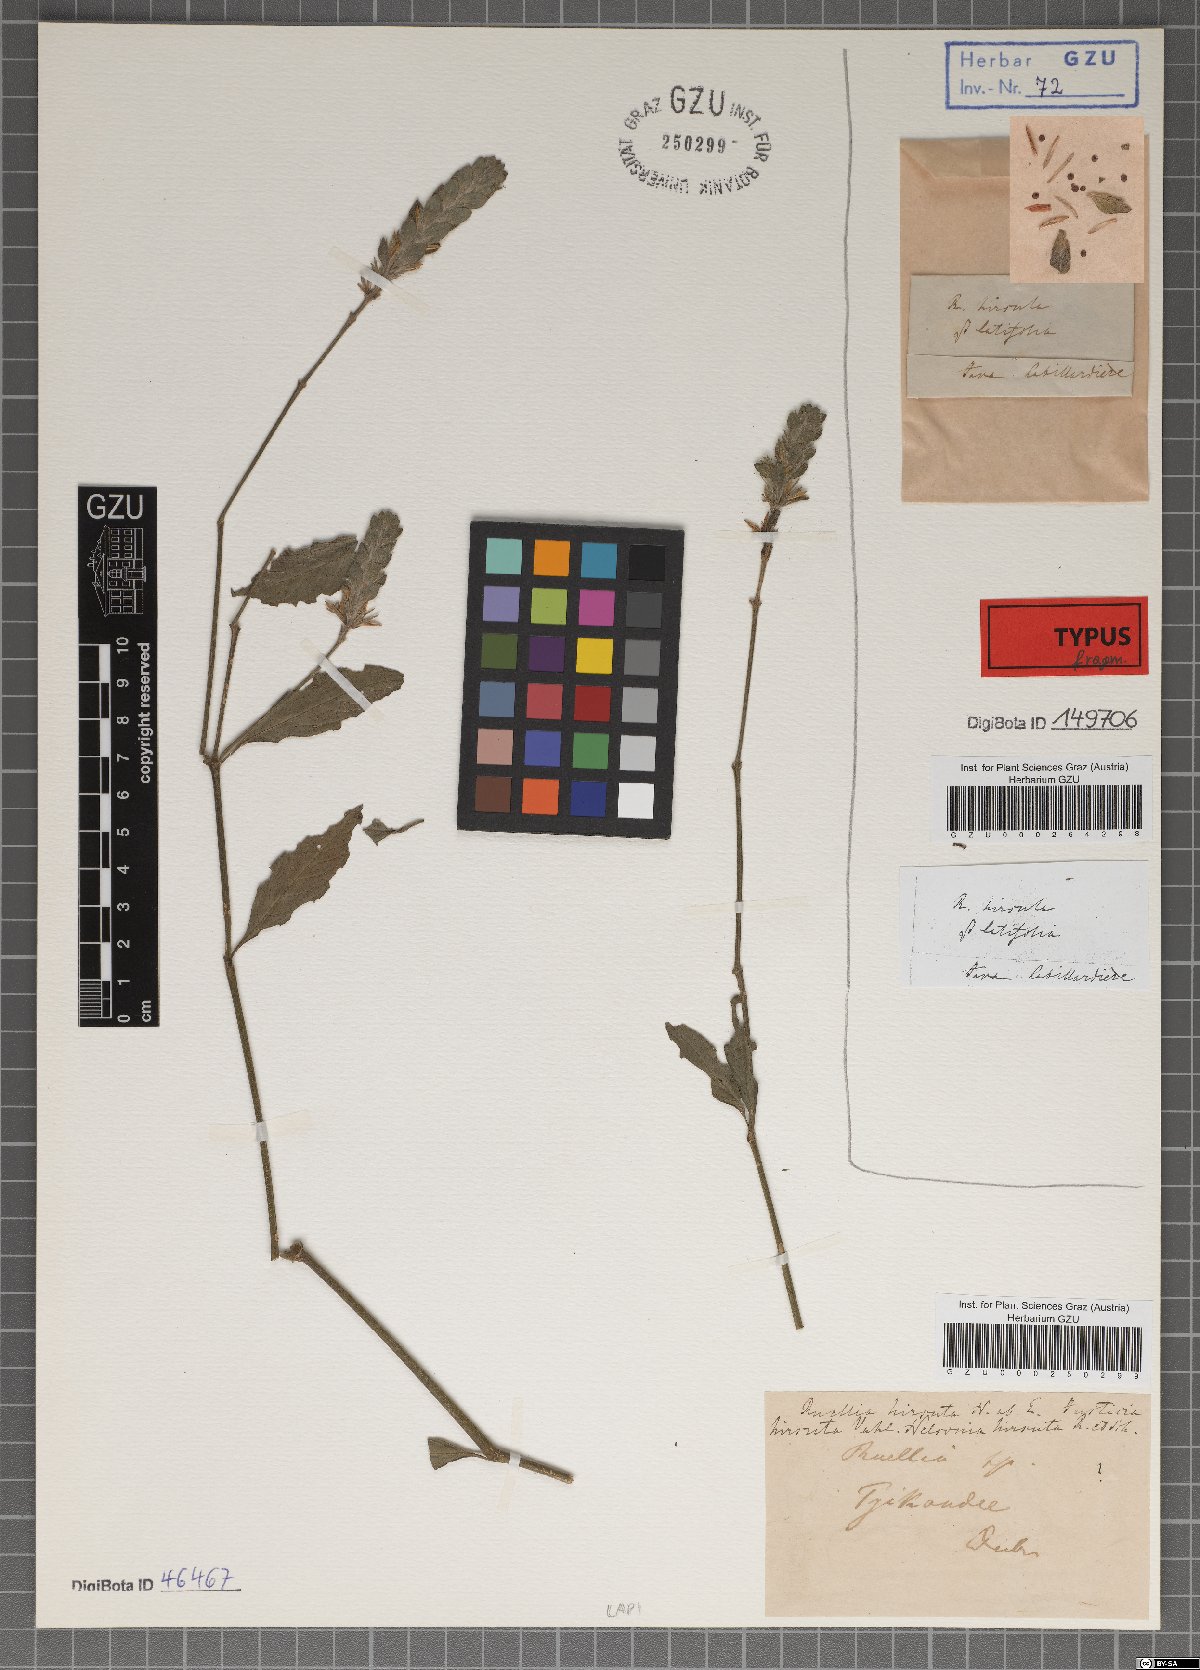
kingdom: Plantae
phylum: Tracheophyta
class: Magnoliopsida
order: Lamiales
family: Acanthaceae
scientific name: Acanthaceae
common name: Acanthaceae
